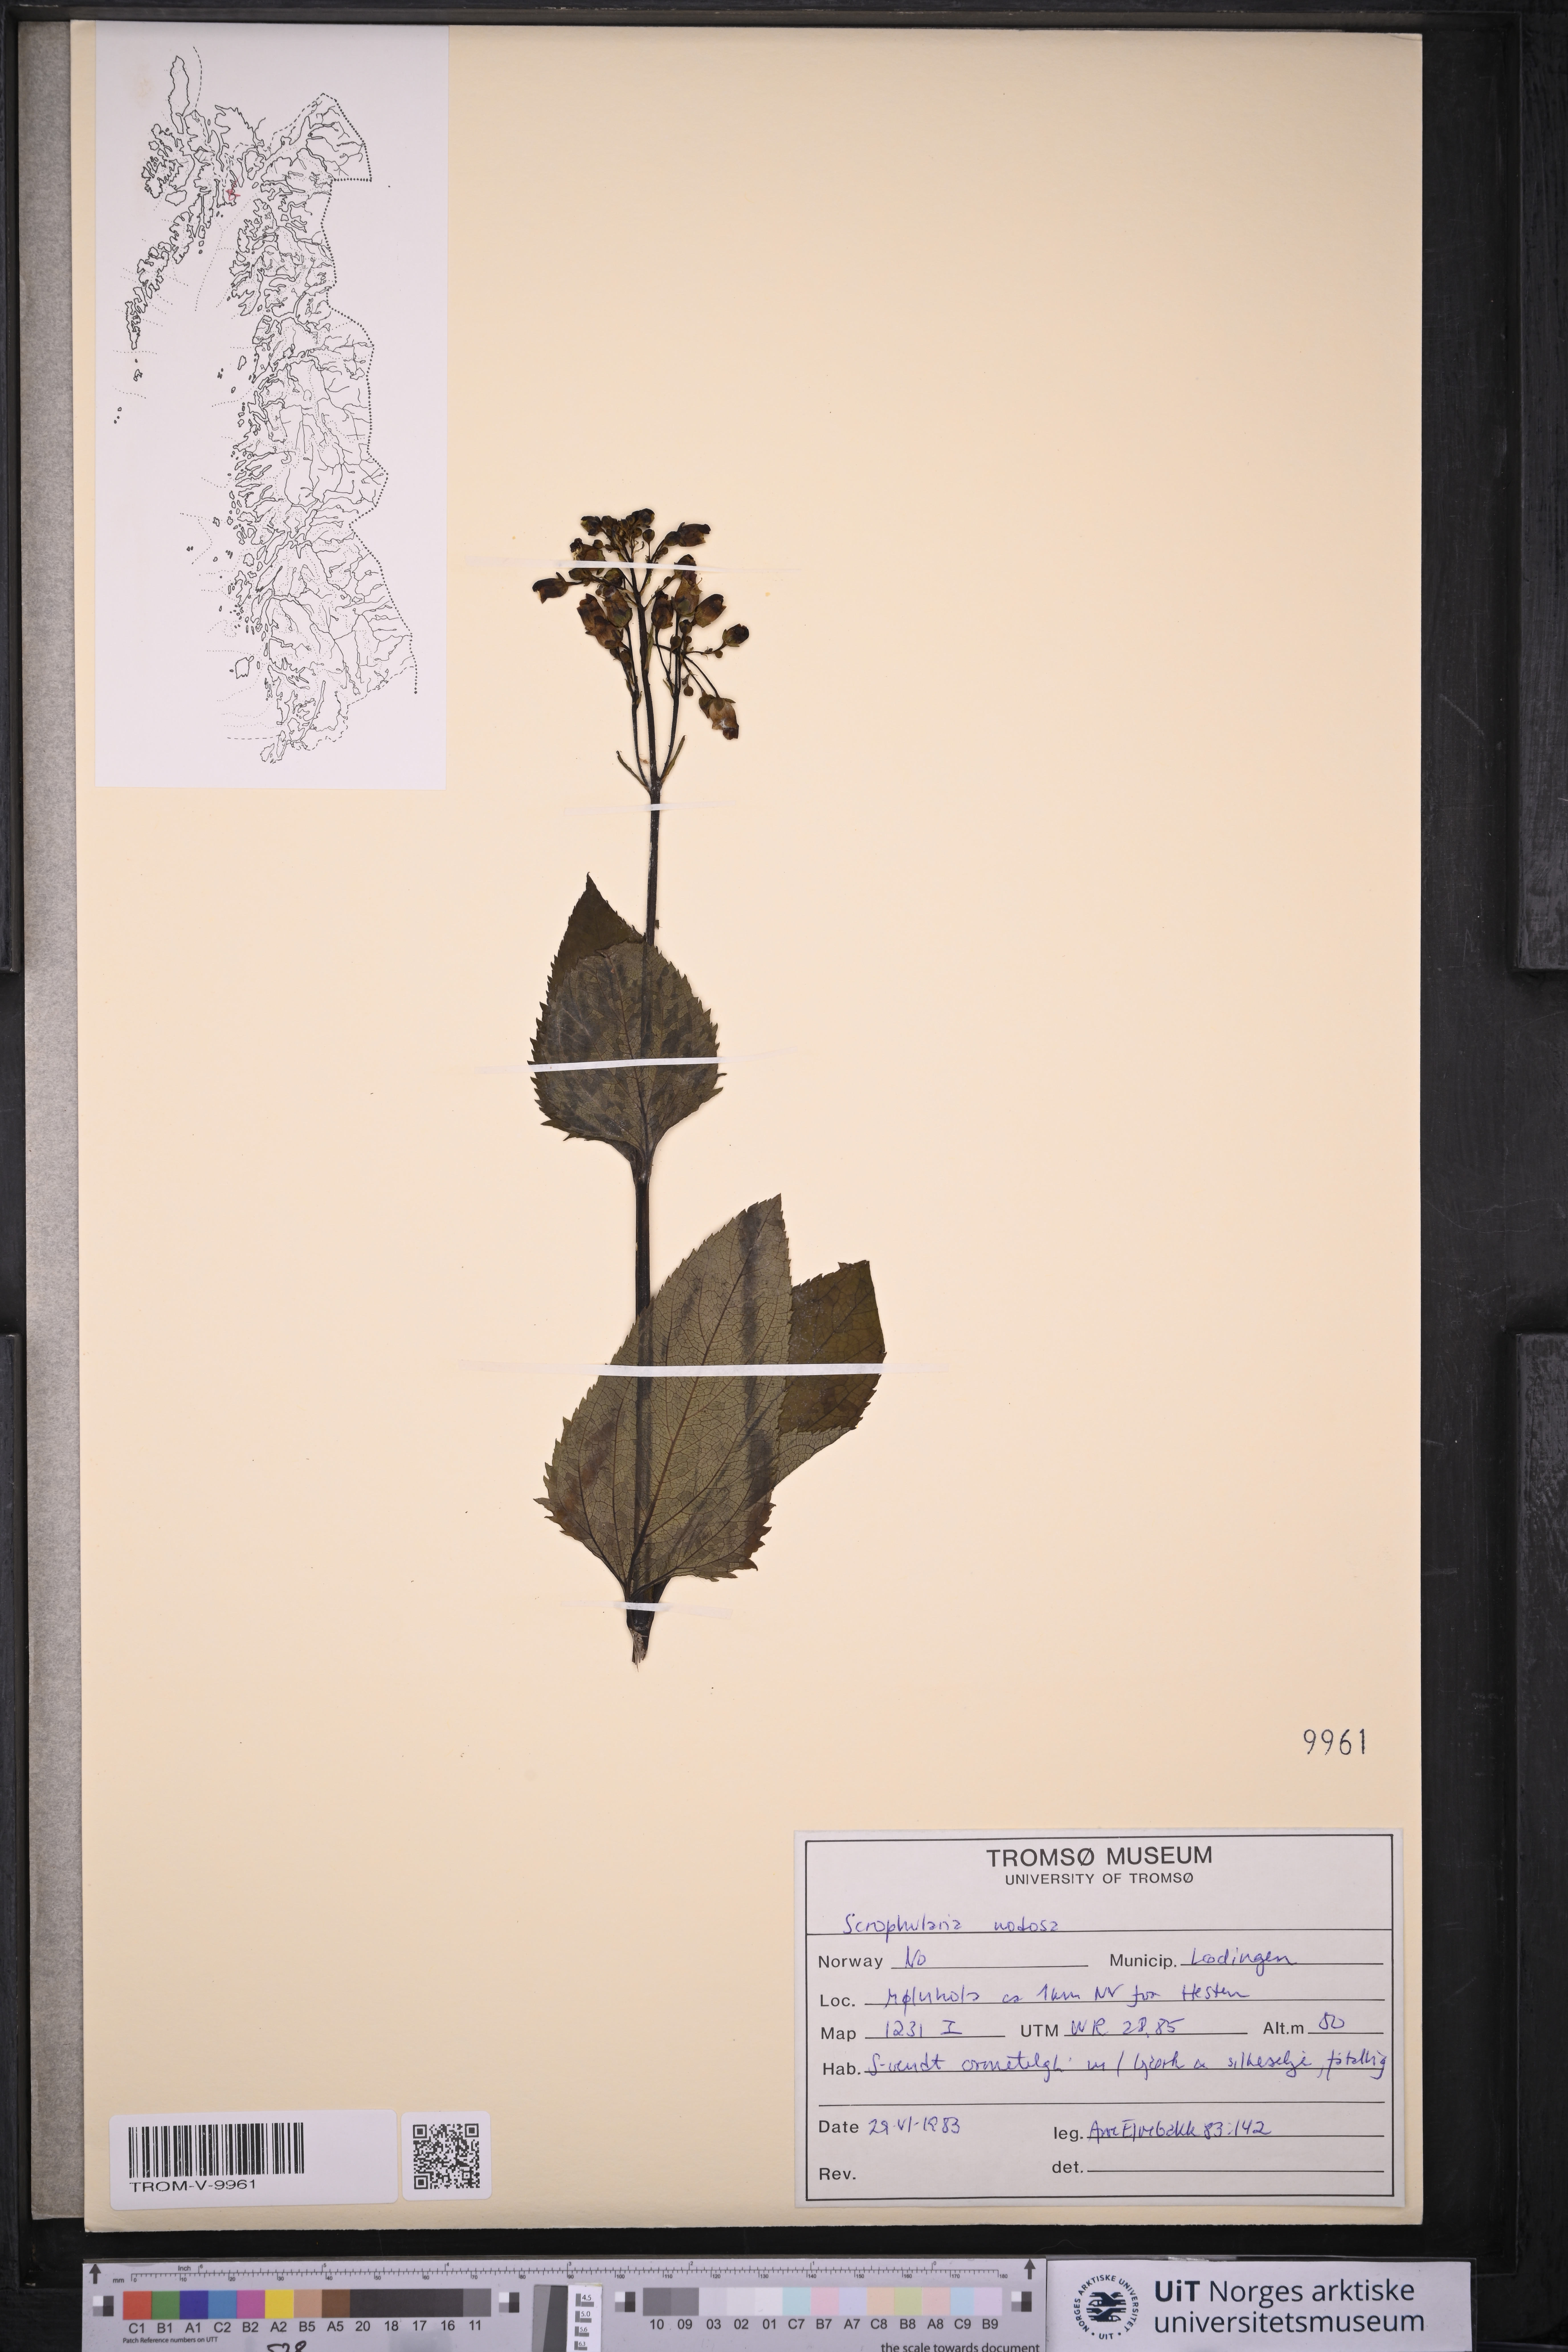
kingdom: Plantae
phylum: Tracheophyta
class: Magnoliopsida
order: Lamiales
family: Scrophulariaceae
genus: Scrophularia
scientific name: Scrophularia nodosa
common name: Common figwort
